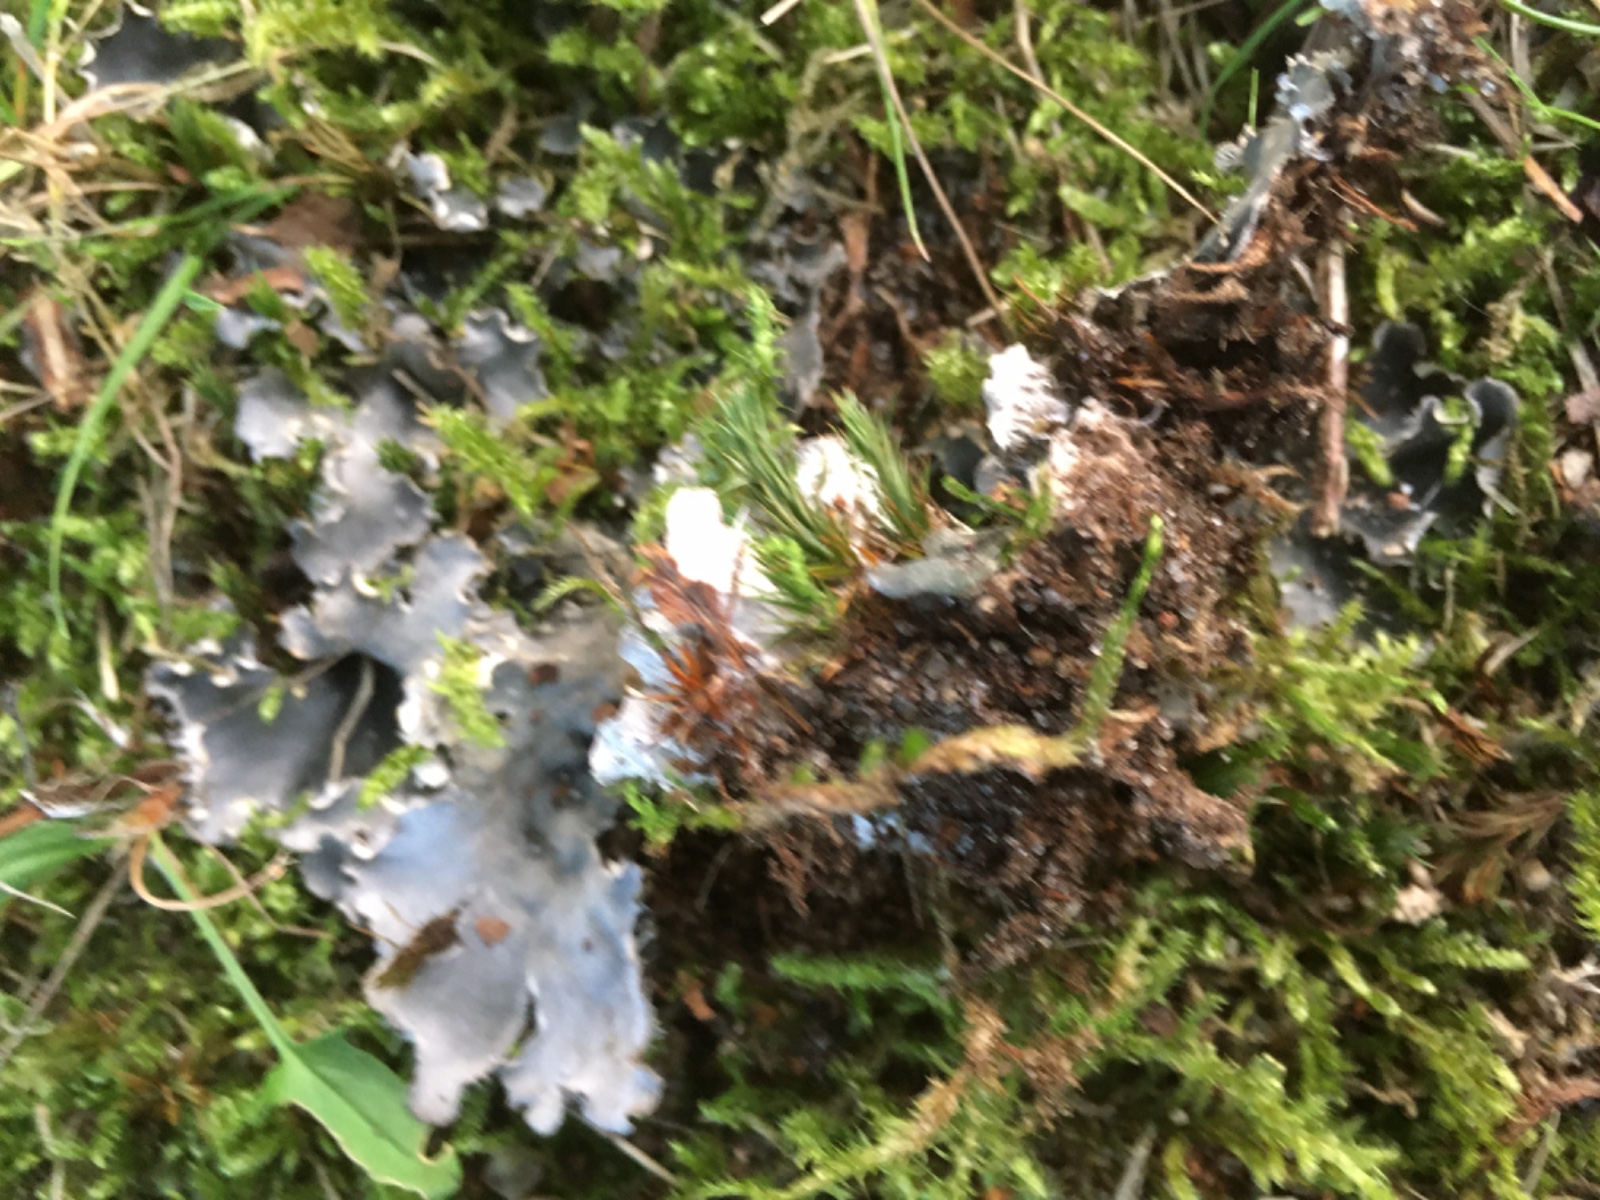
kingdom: Fungi
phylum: Ascomycota
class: Lecanoromycetes
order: Peltigerales
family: Peltigeraceae
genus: Peltigera
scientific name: Peltigera
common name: skjoldlav
